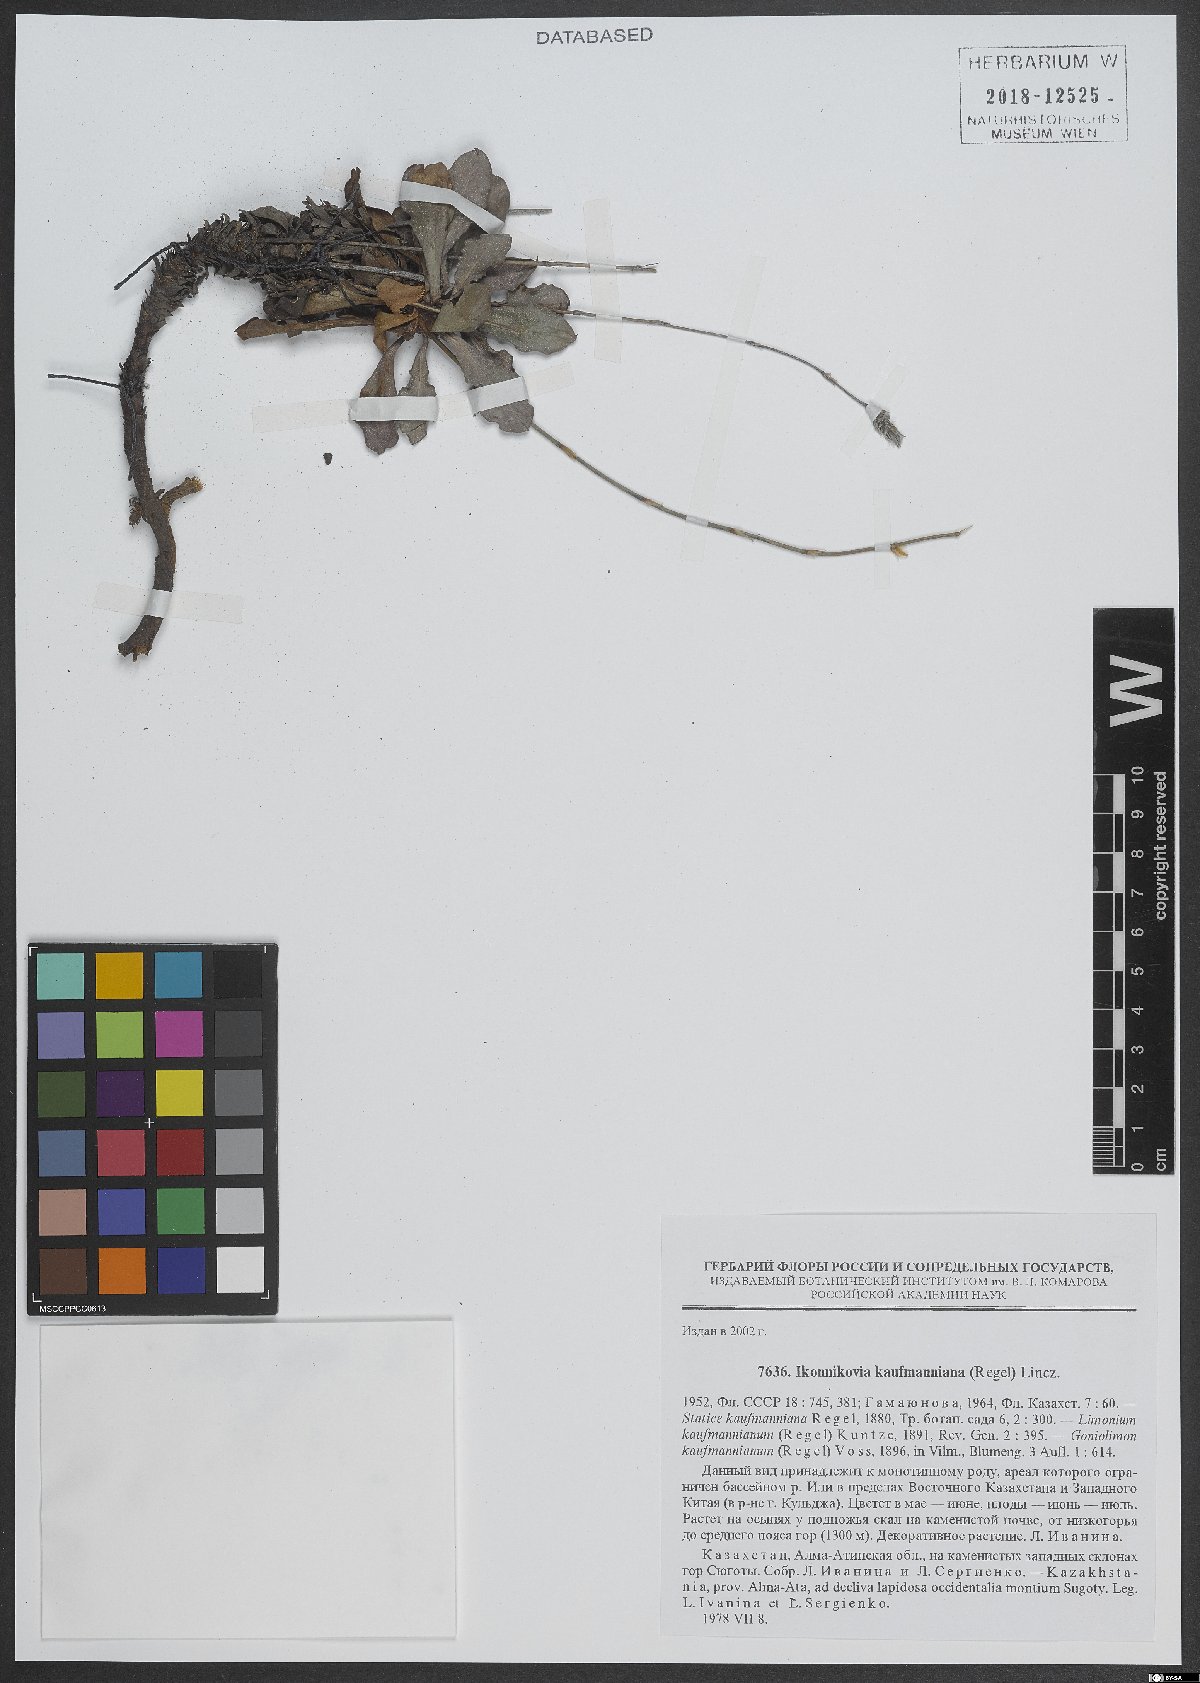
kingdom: Plantae
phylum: Tracheophyta
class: Magnoliopsida
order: Caryophyllales
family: Plumbaginaceae
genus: Ikonnikovia
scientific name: Ikonnikovia kaufmanniana
